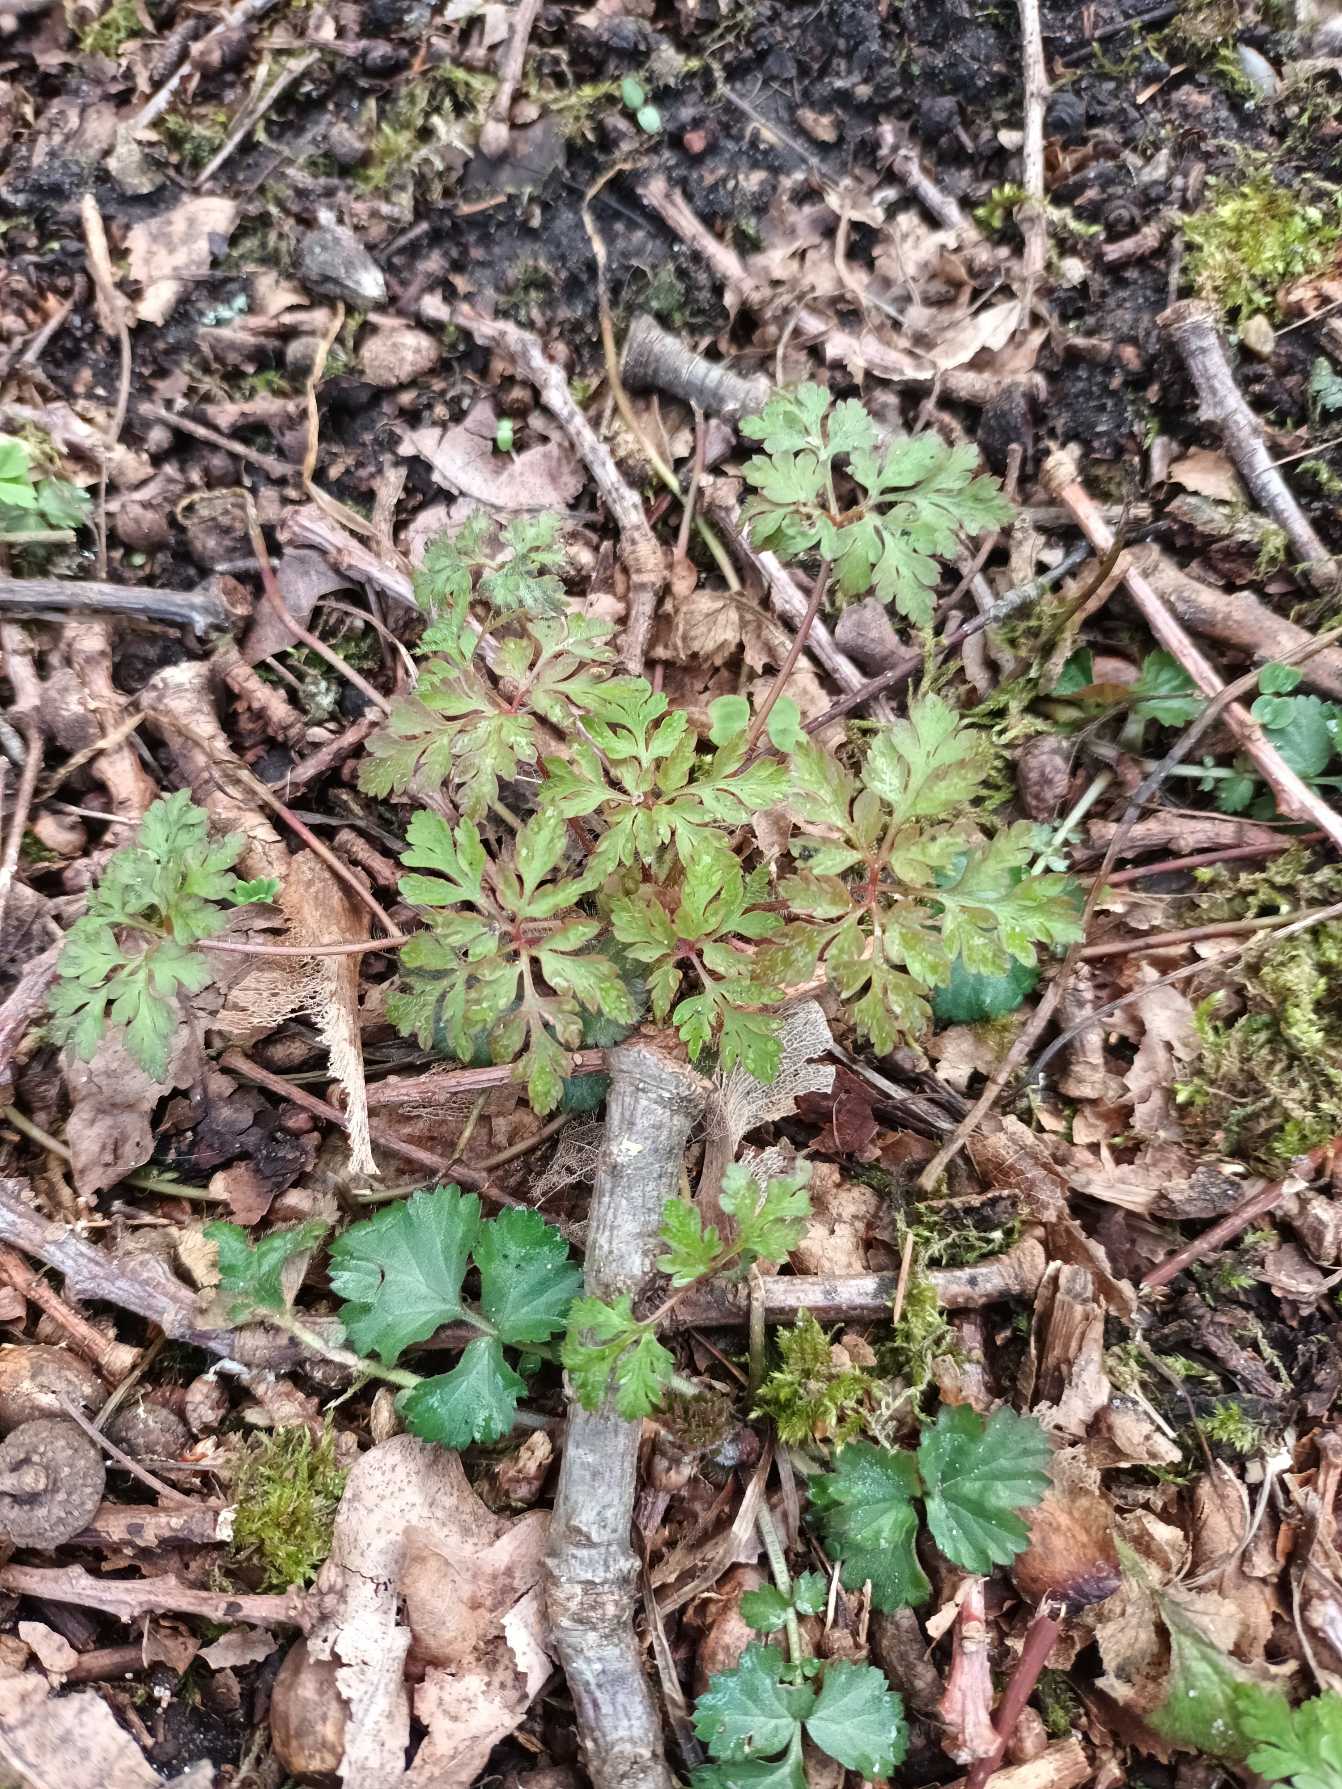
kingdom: Plantae
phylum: Tracheophyta
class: Magnoliopsida
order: Geraniales
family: Geraniaceae
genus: Geranium
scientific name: Geranium robertianum
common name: Stinkende storkenæb
